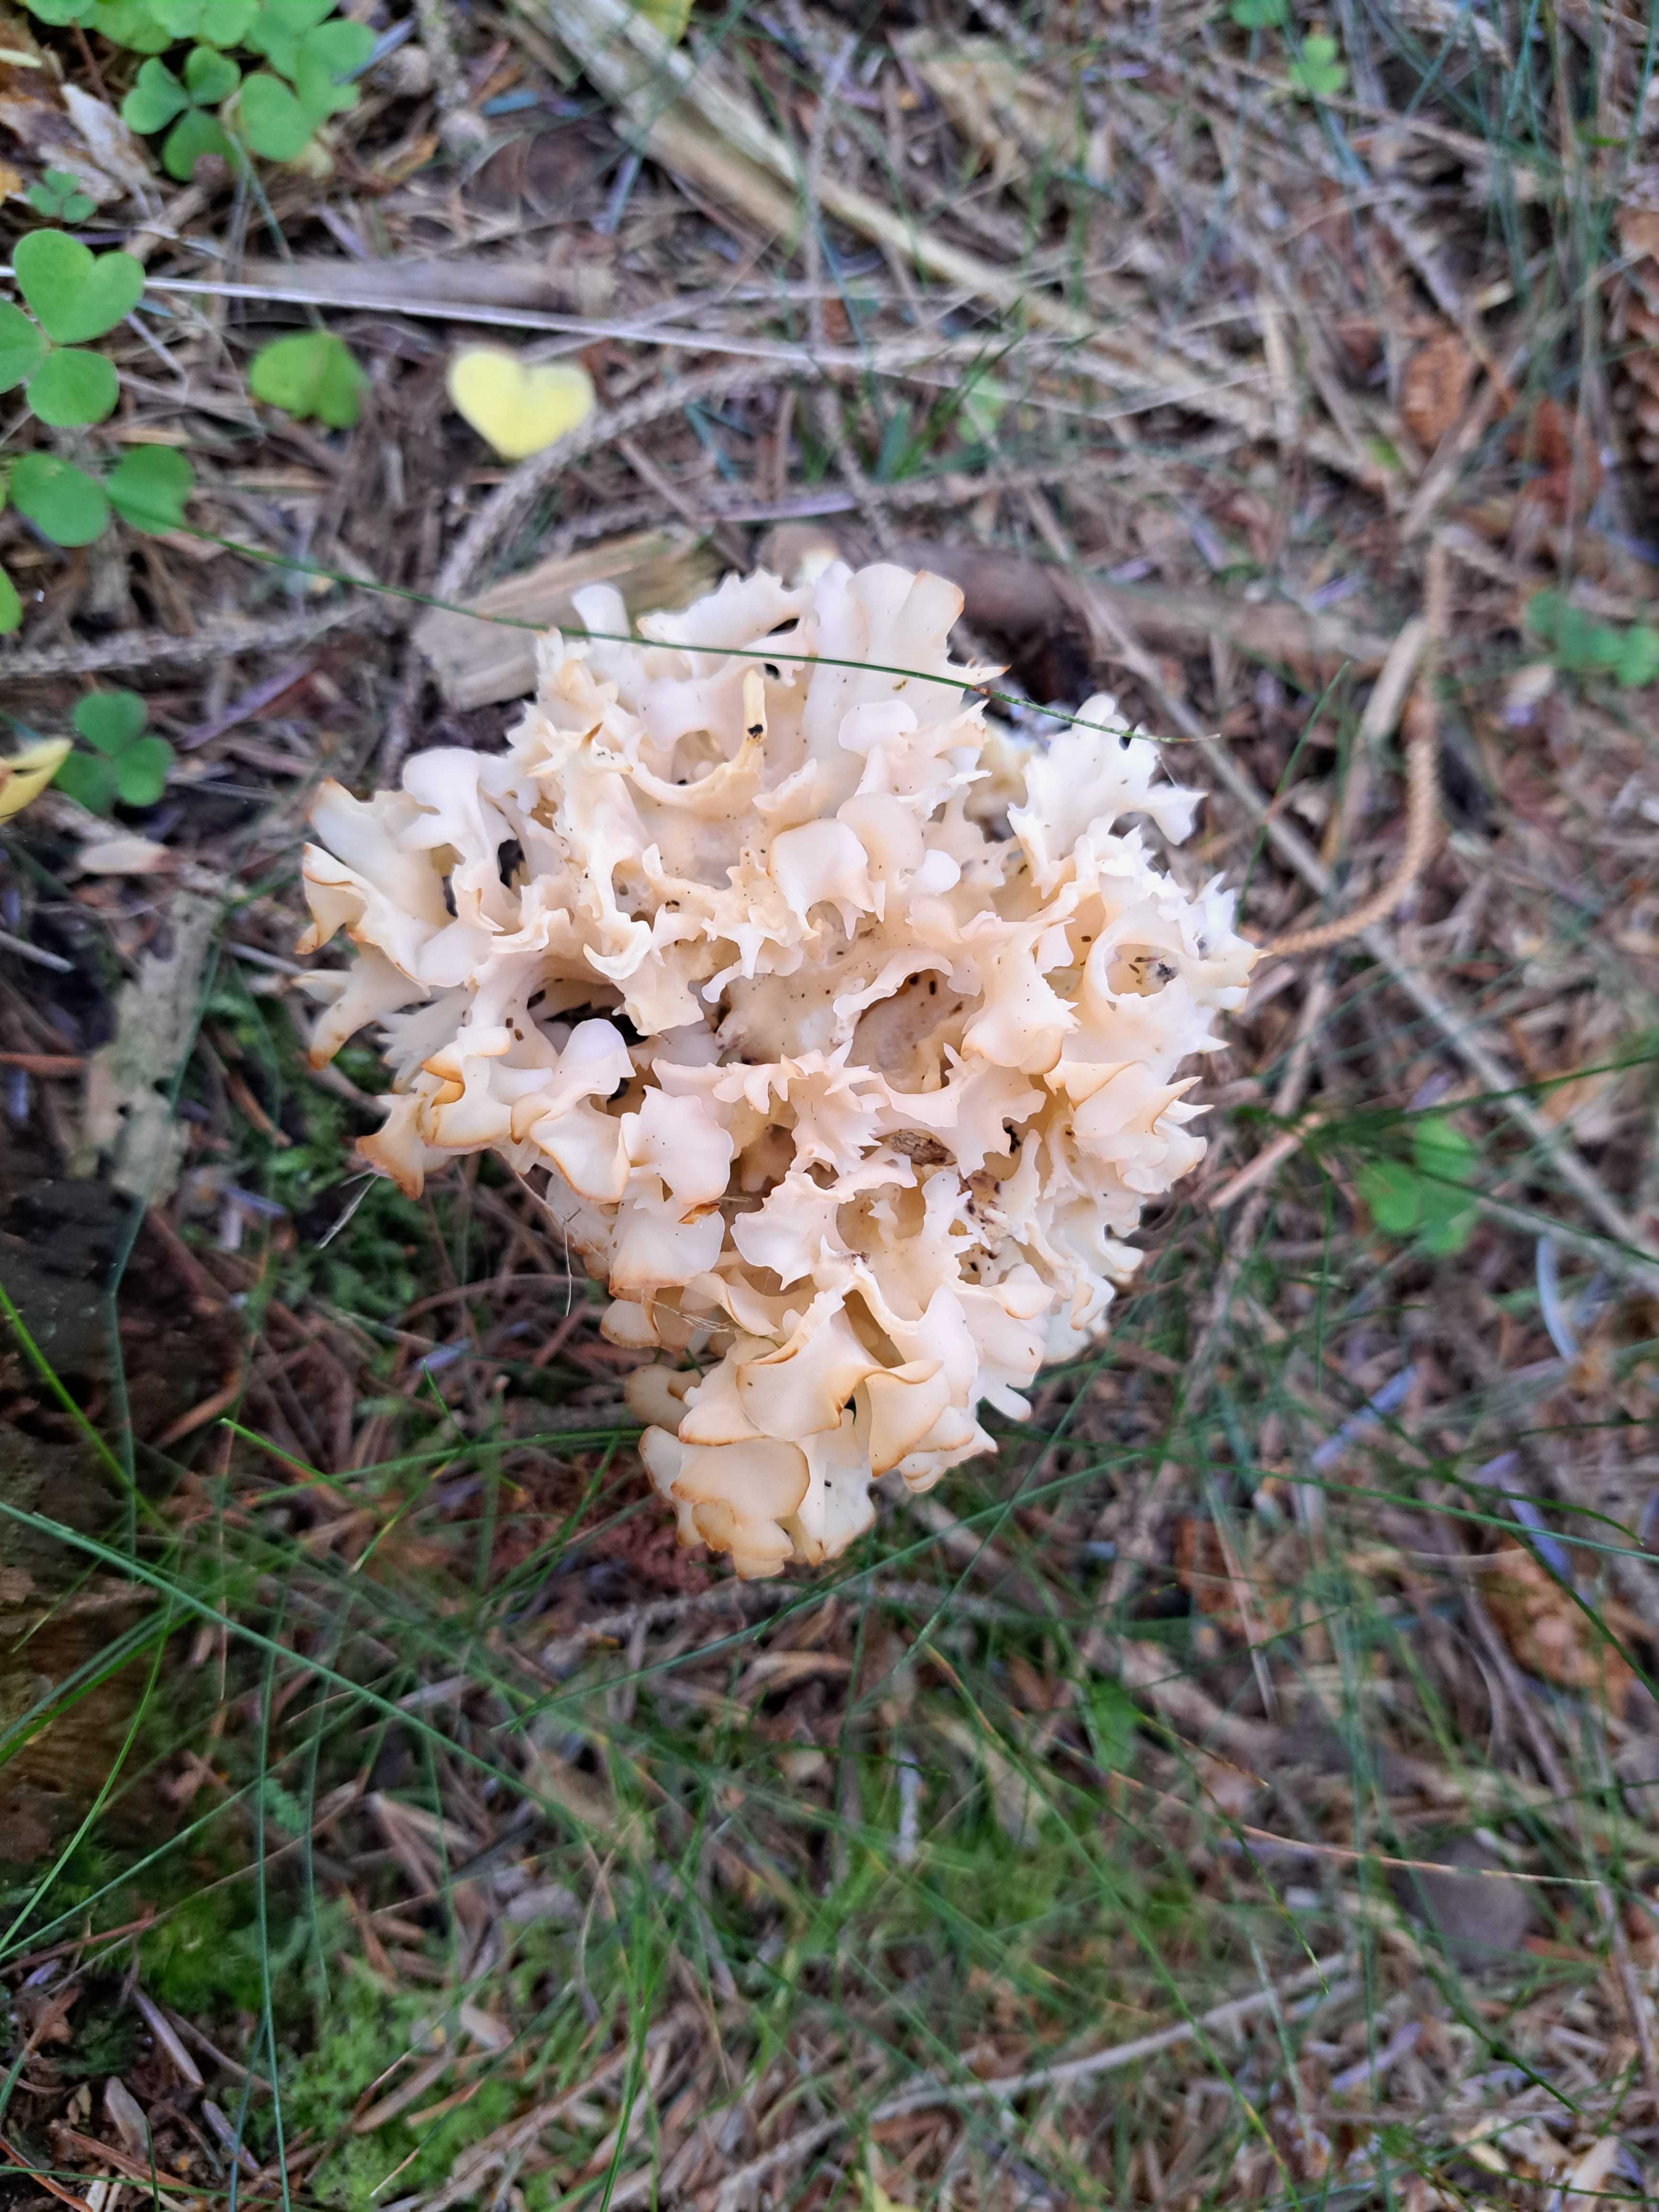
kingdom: Fungi
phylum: Basidiomycota
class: Agaricomycetes
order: Polyporales
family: Sparassidaceae
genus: Sparassis
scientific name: Sparassis crispa
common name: kruset blomkålssvamp
